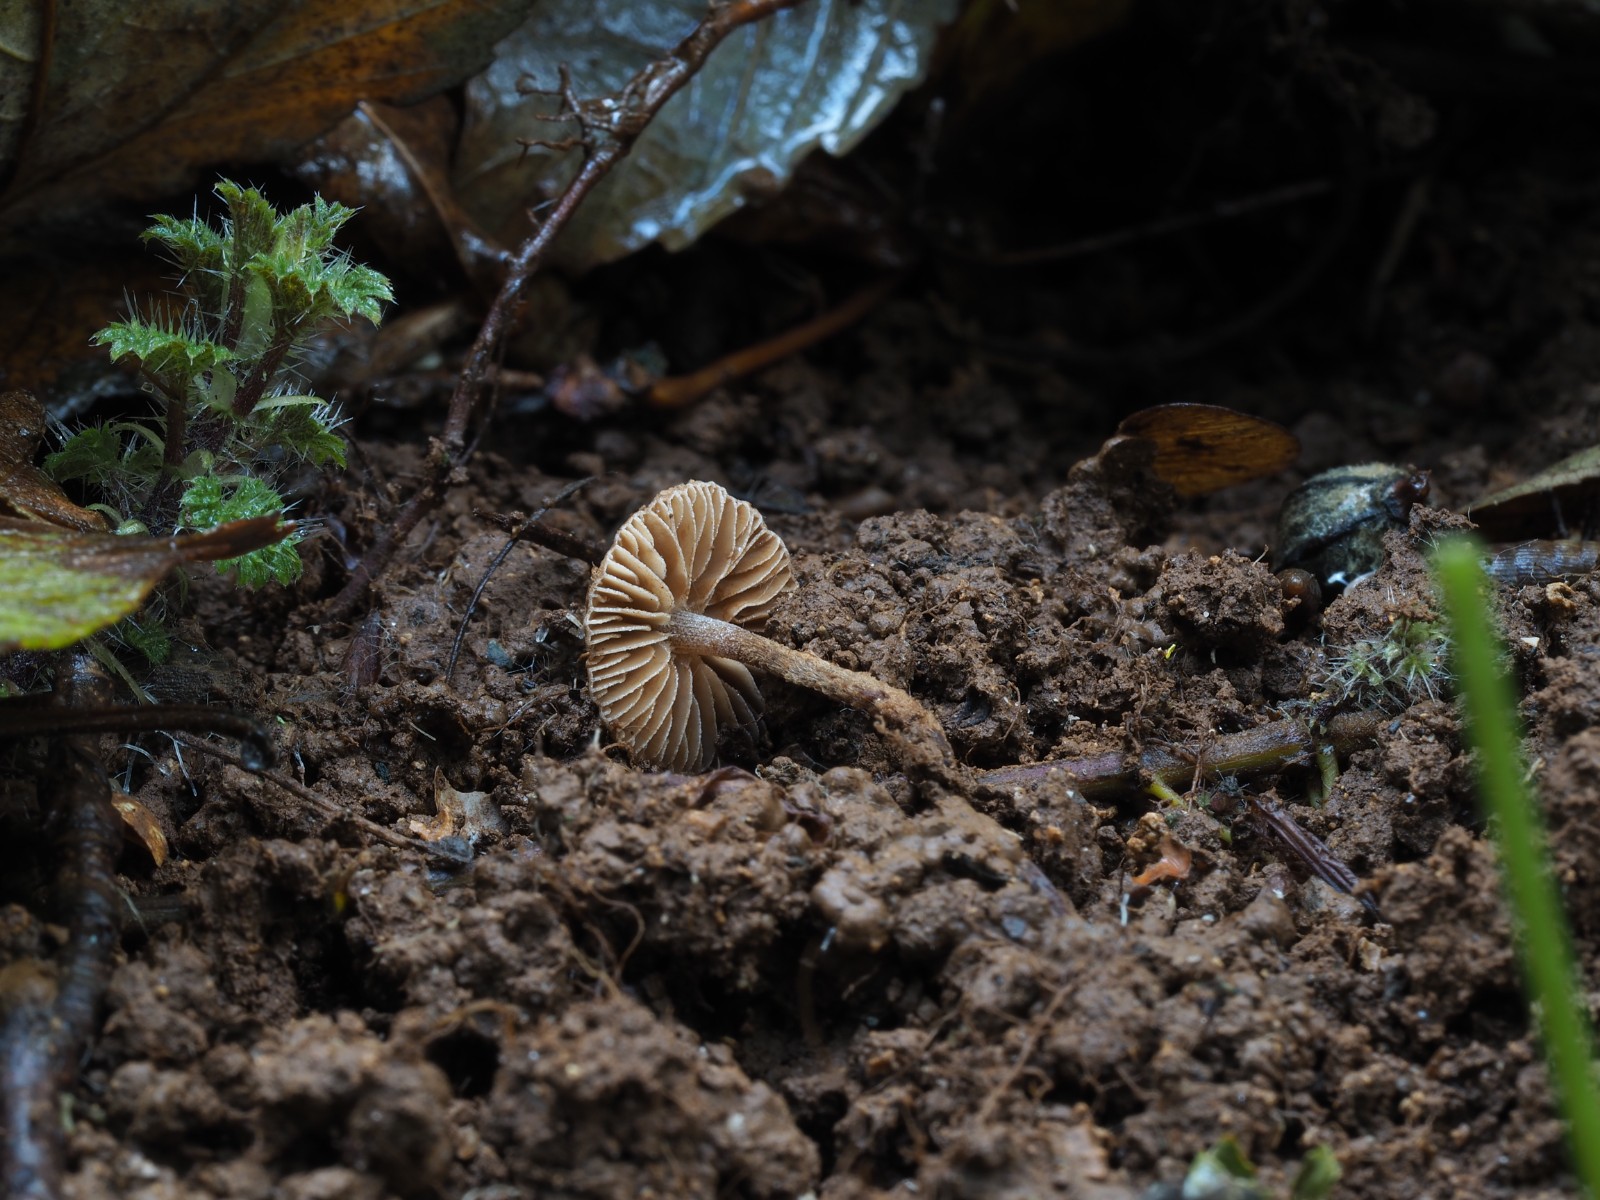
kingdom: Fungi
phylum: Basidiomycota
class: Agaricomycetes
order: Agaricales
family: Tubariaceae
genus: Flammulaster
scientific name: Flammulaster granulosus
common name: gulbrun grynskælhat
